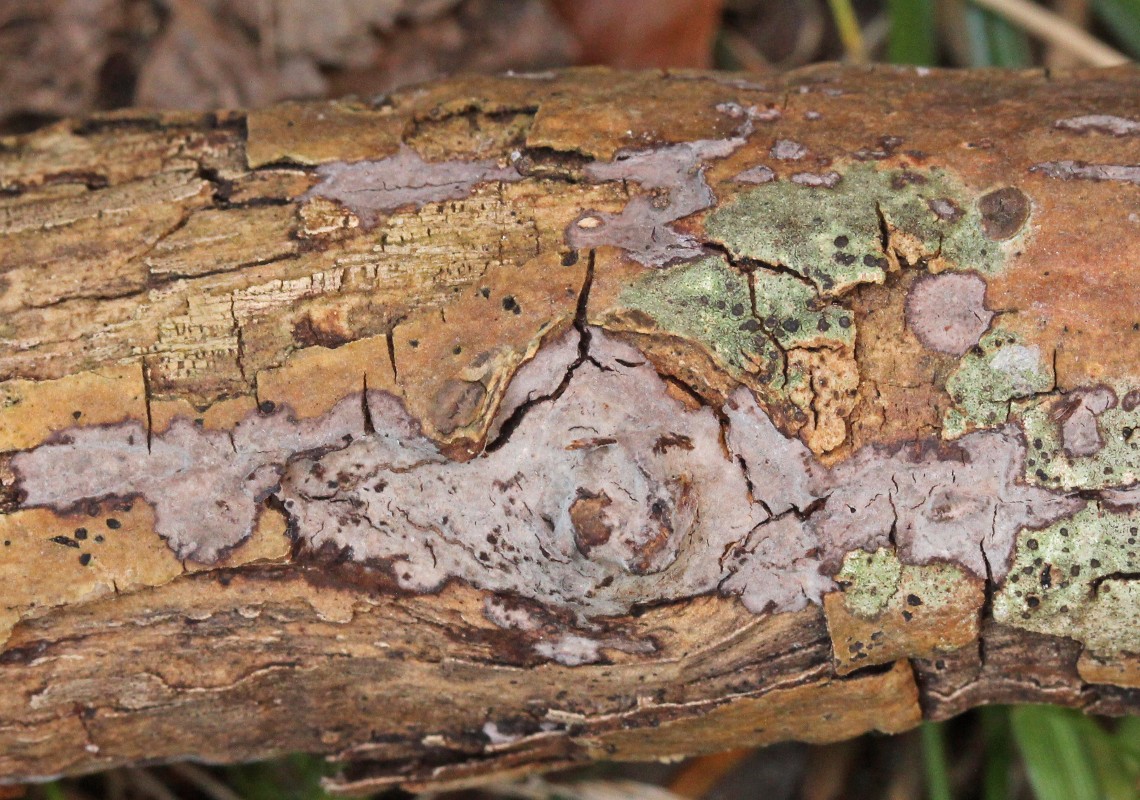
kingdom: Fungi
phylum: Basidiomycota
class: Agaricomycetes
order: Russulales
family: Peniophoraceae
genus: Peniophora
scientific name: Peniophora limitata
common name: mørkrandet voksskind
